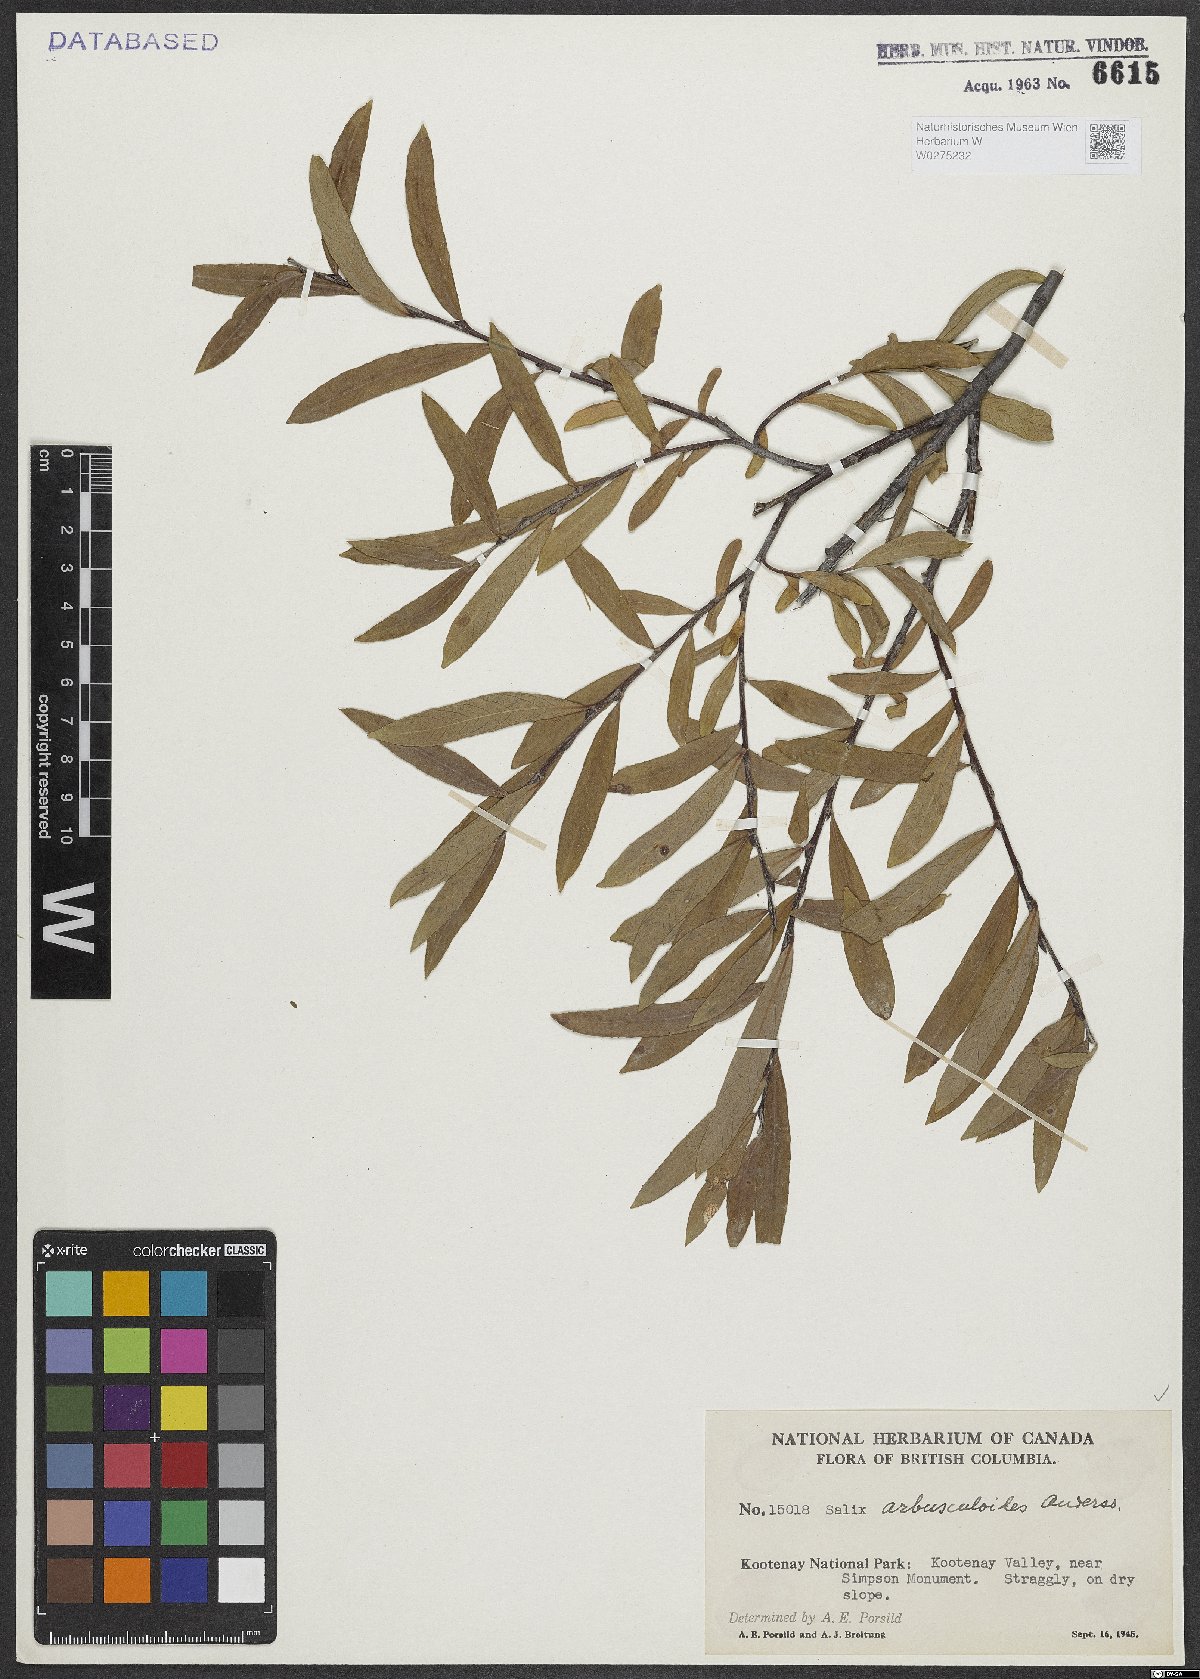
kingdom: Plantae
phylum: Tracheophyta
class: Magnoliopsida
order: Malpighiales
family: Salicaceae
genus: Salix
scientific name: Salix arbusculoides
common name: Little-tree willow
